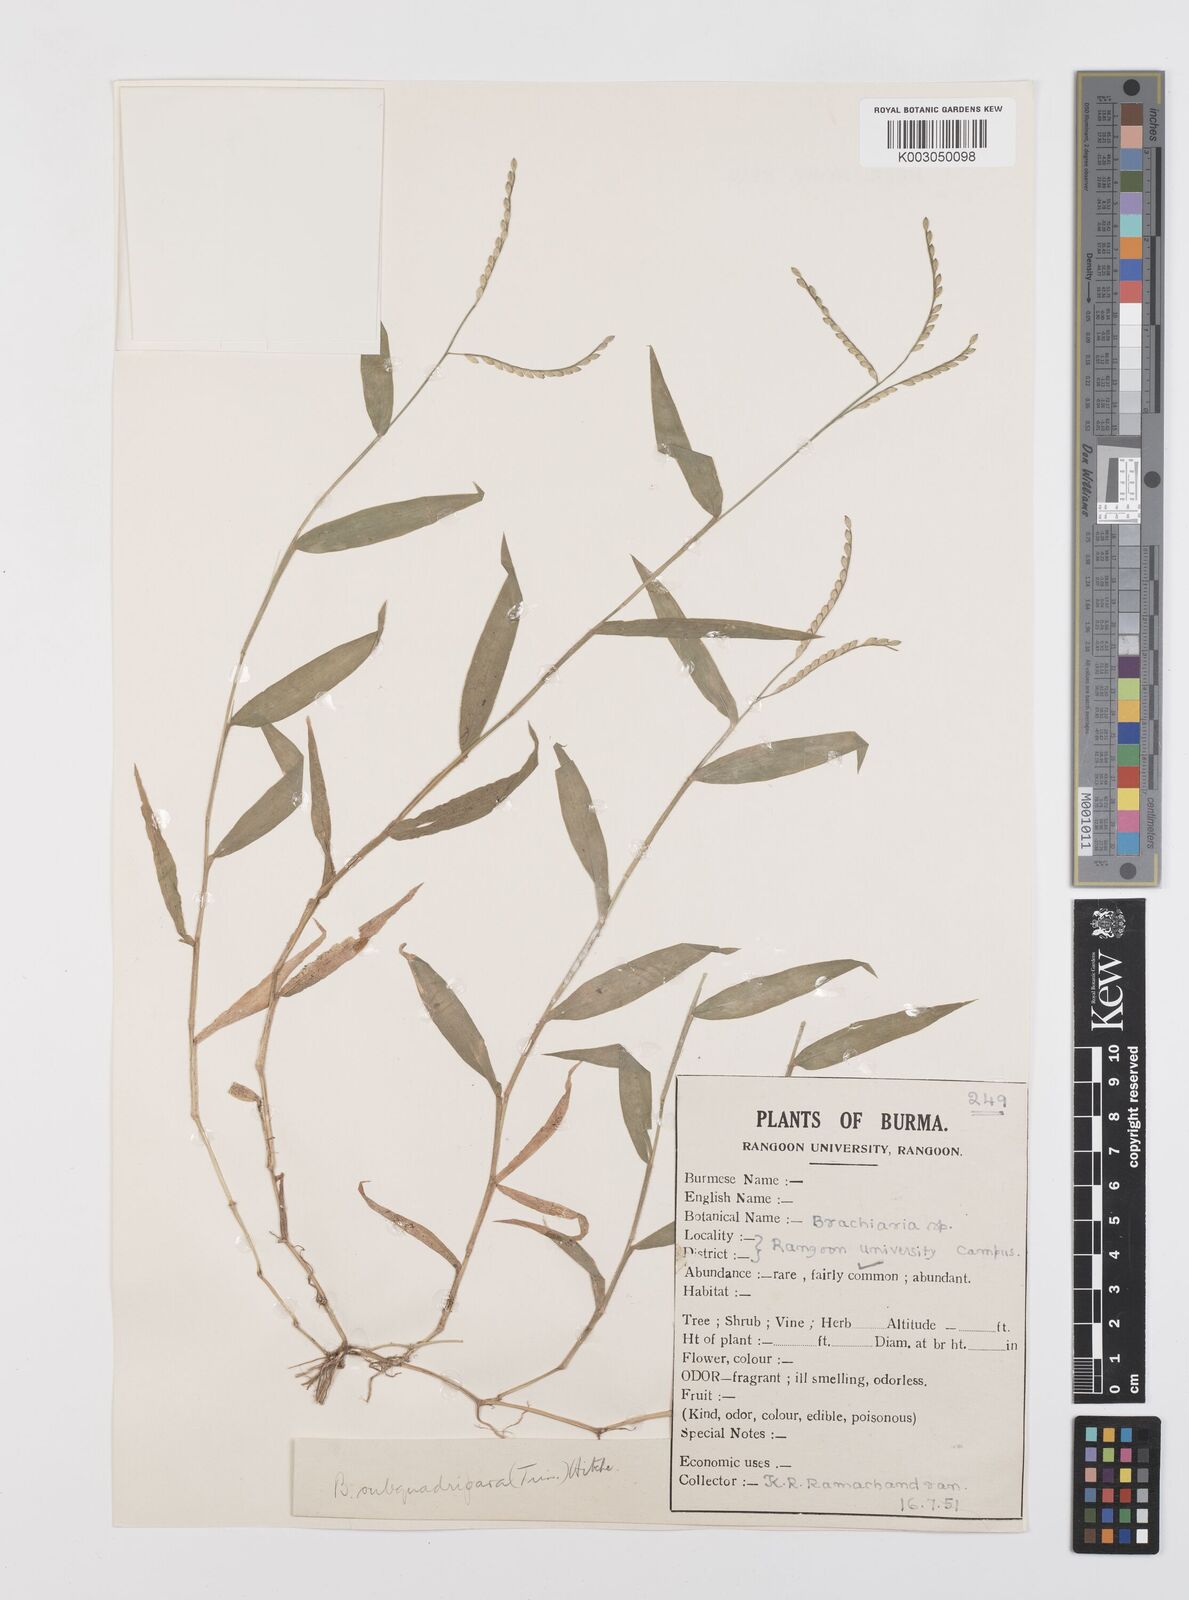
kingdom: Plantae
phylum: Tracheophyta
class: Liliopsida
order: Poales
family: Poaceae
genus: Urochloa
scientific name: Urochloa subquadripara
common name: Armgrass millet
